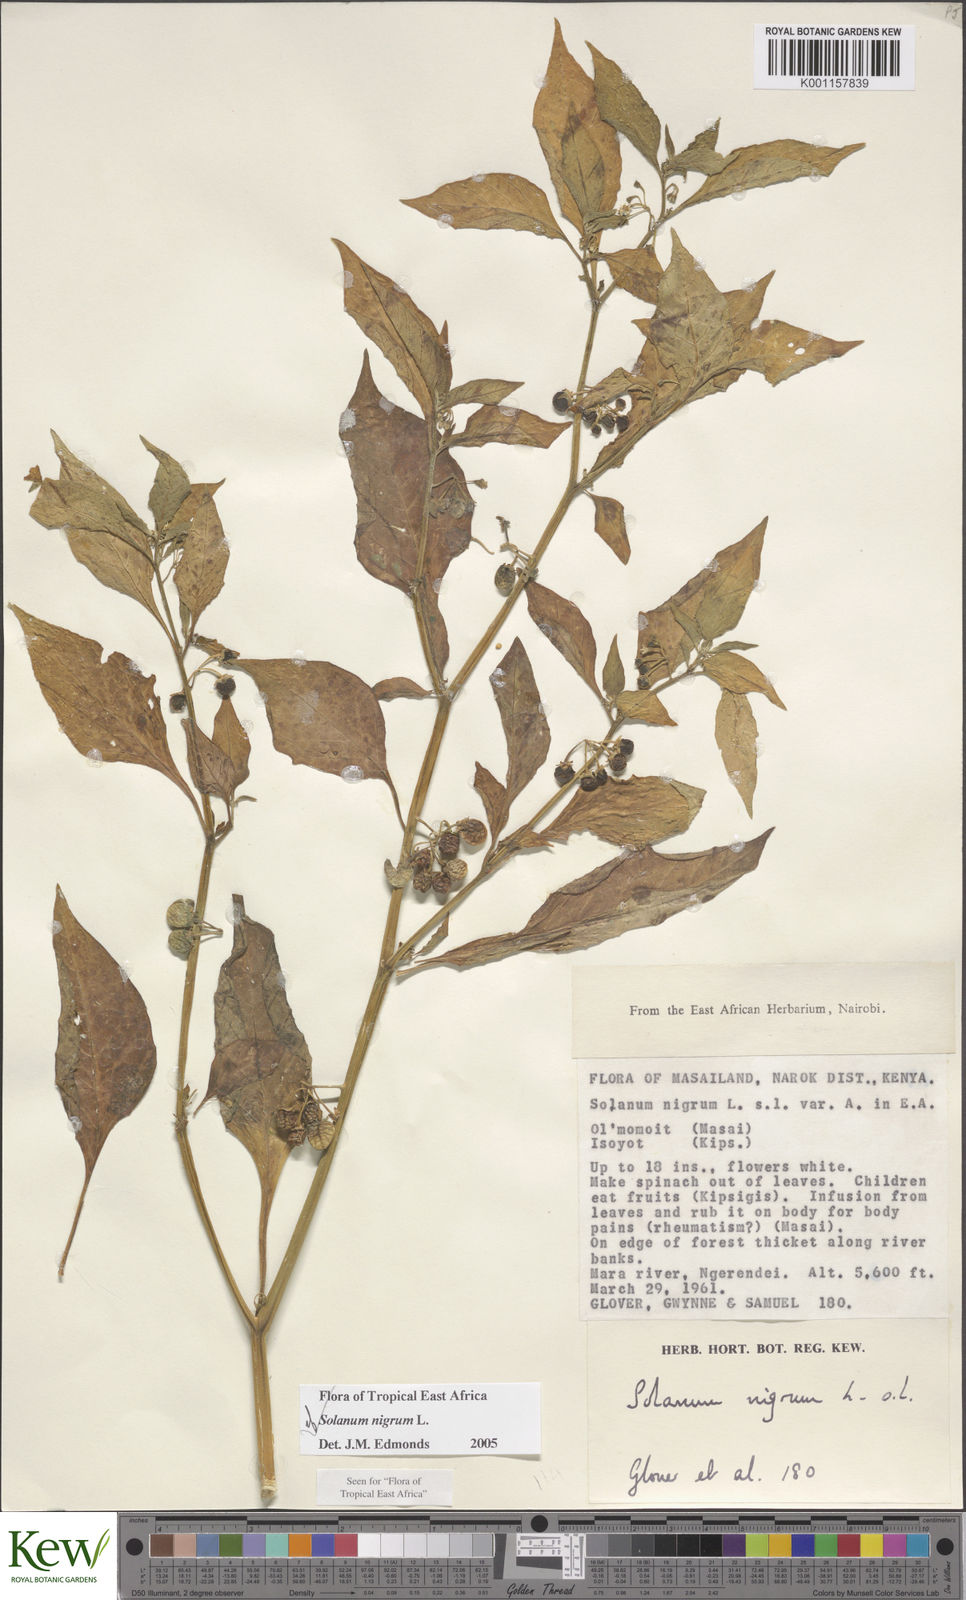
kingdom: Plantae
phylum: Tracheophyta
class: Magnoliopsida
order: Solanales
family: Solanaceae
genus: Solanum
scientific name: Solanum nigrum
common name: Black nightshade
